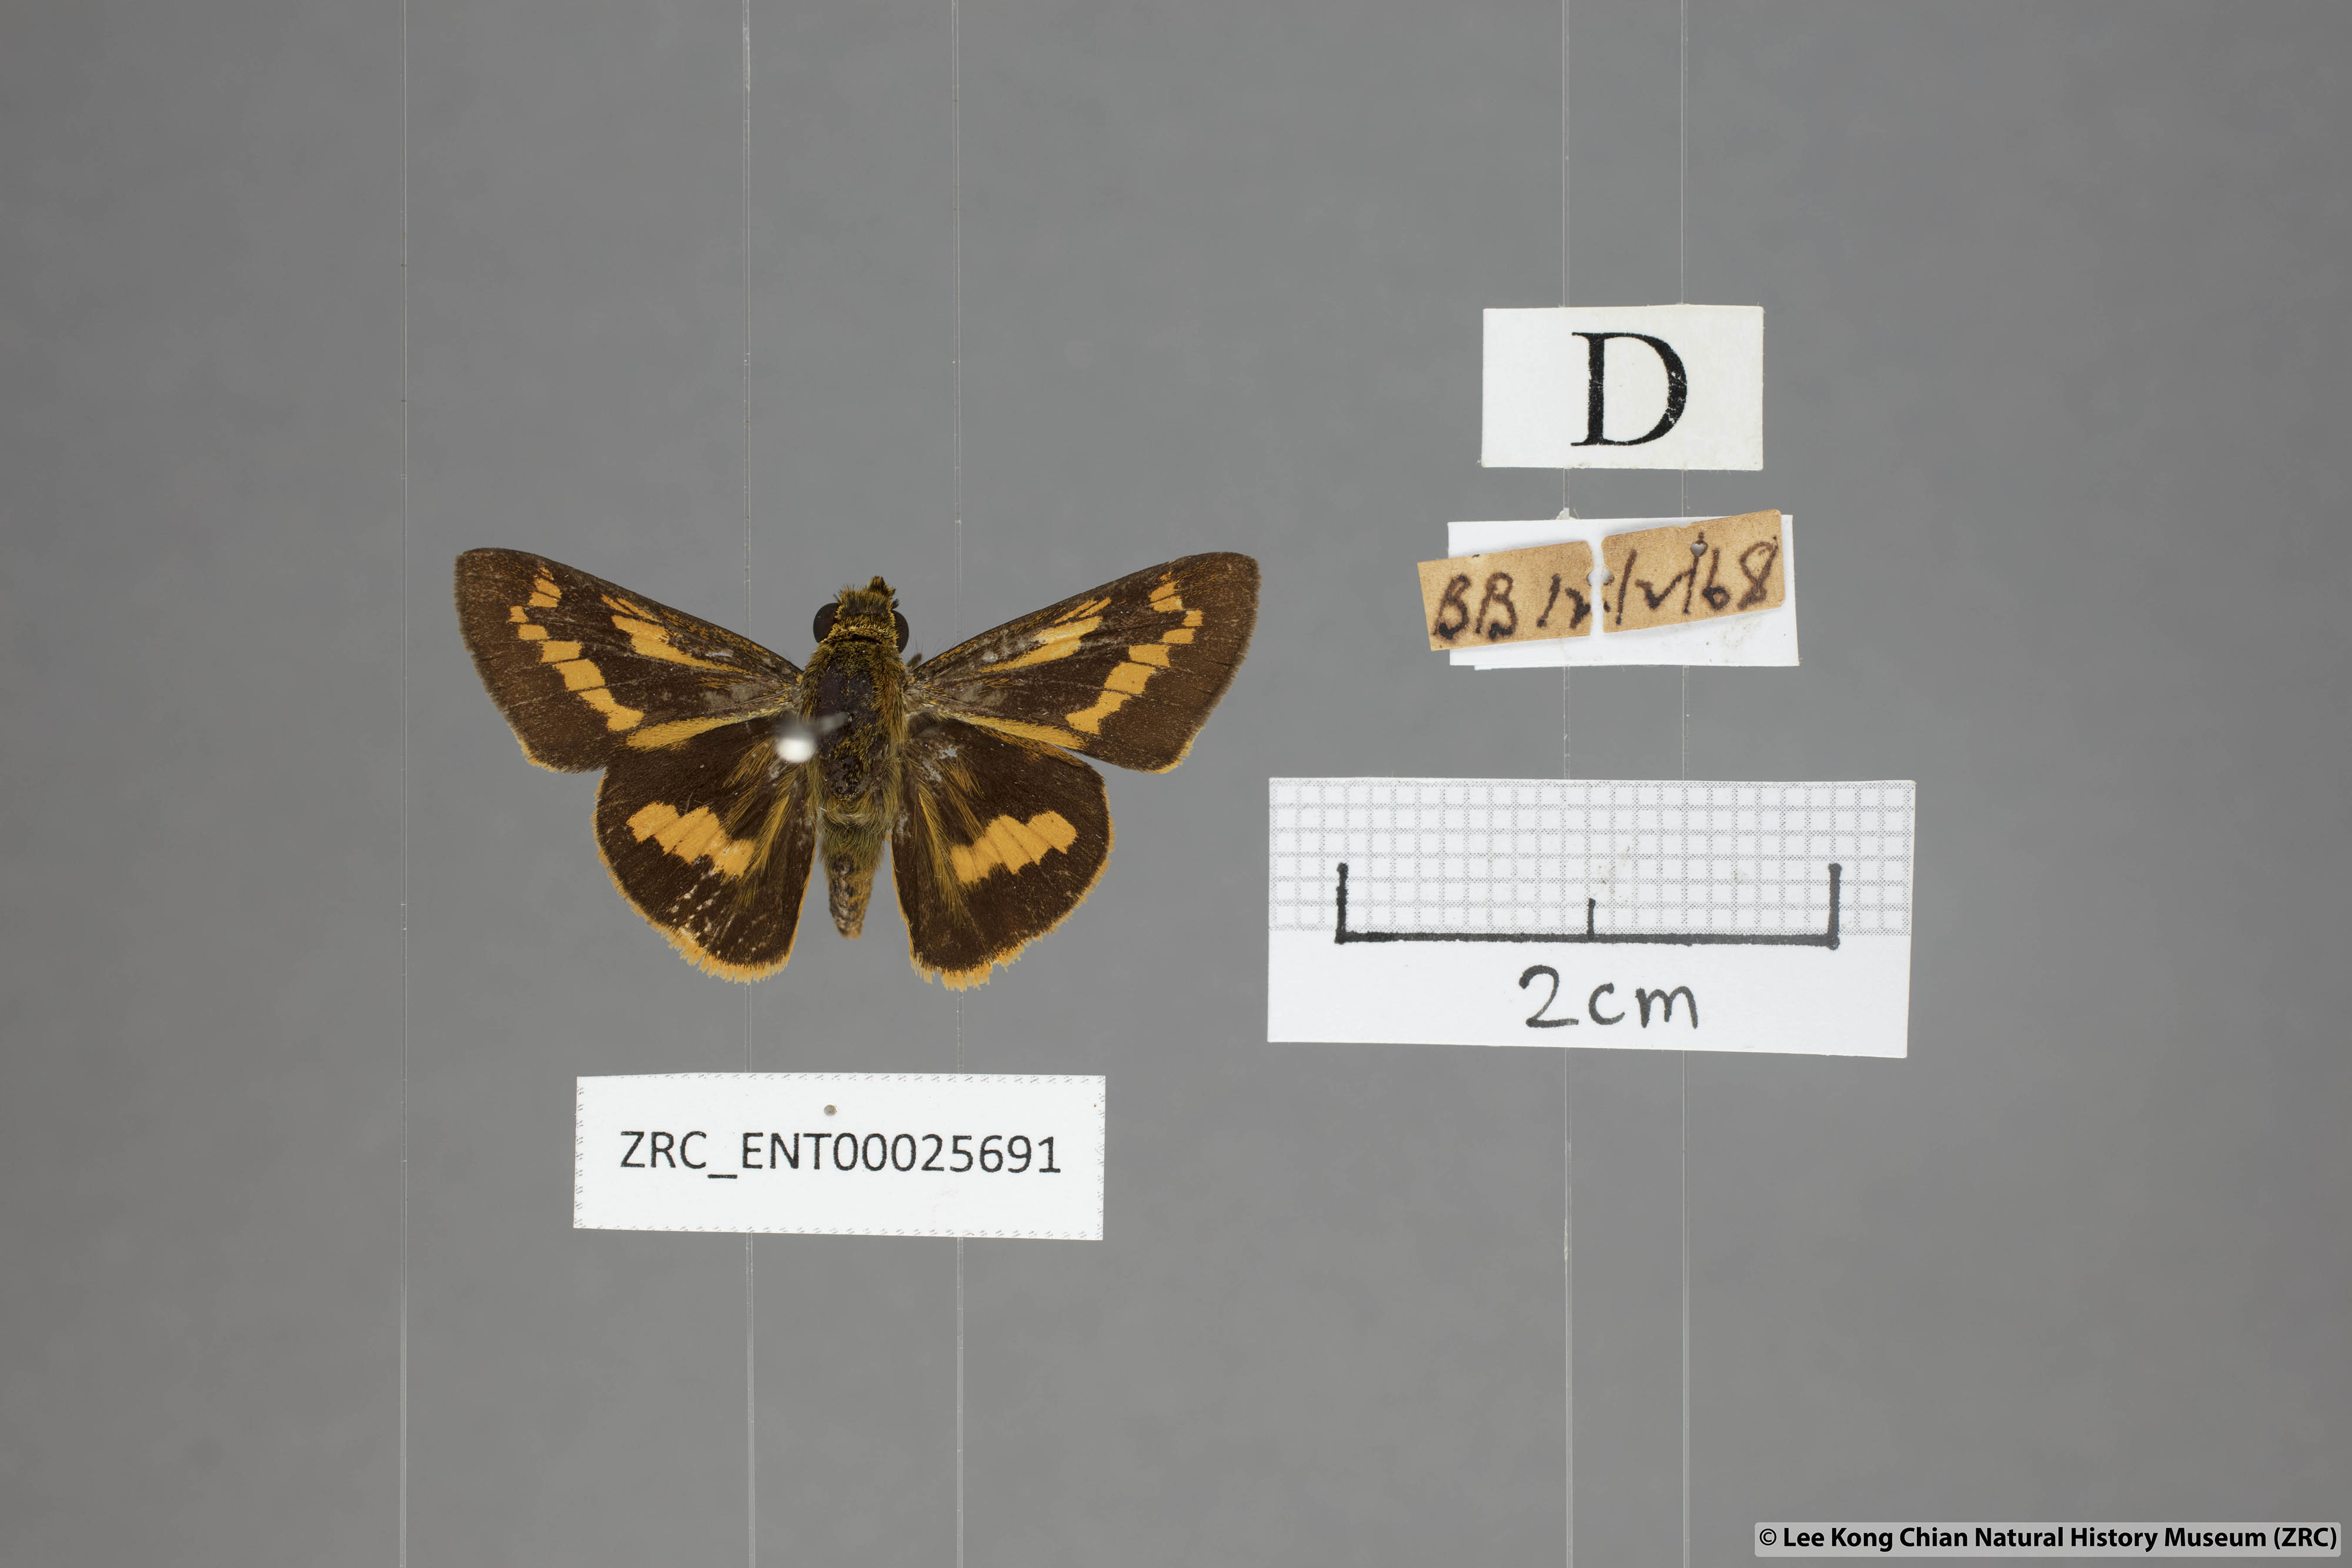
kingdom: Animalia
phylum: Arthropoda
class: Insecta
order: Lepidoptera
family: Hesperiidae
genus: Telicota
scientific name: Telicota ohara
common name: Dark palm dart
